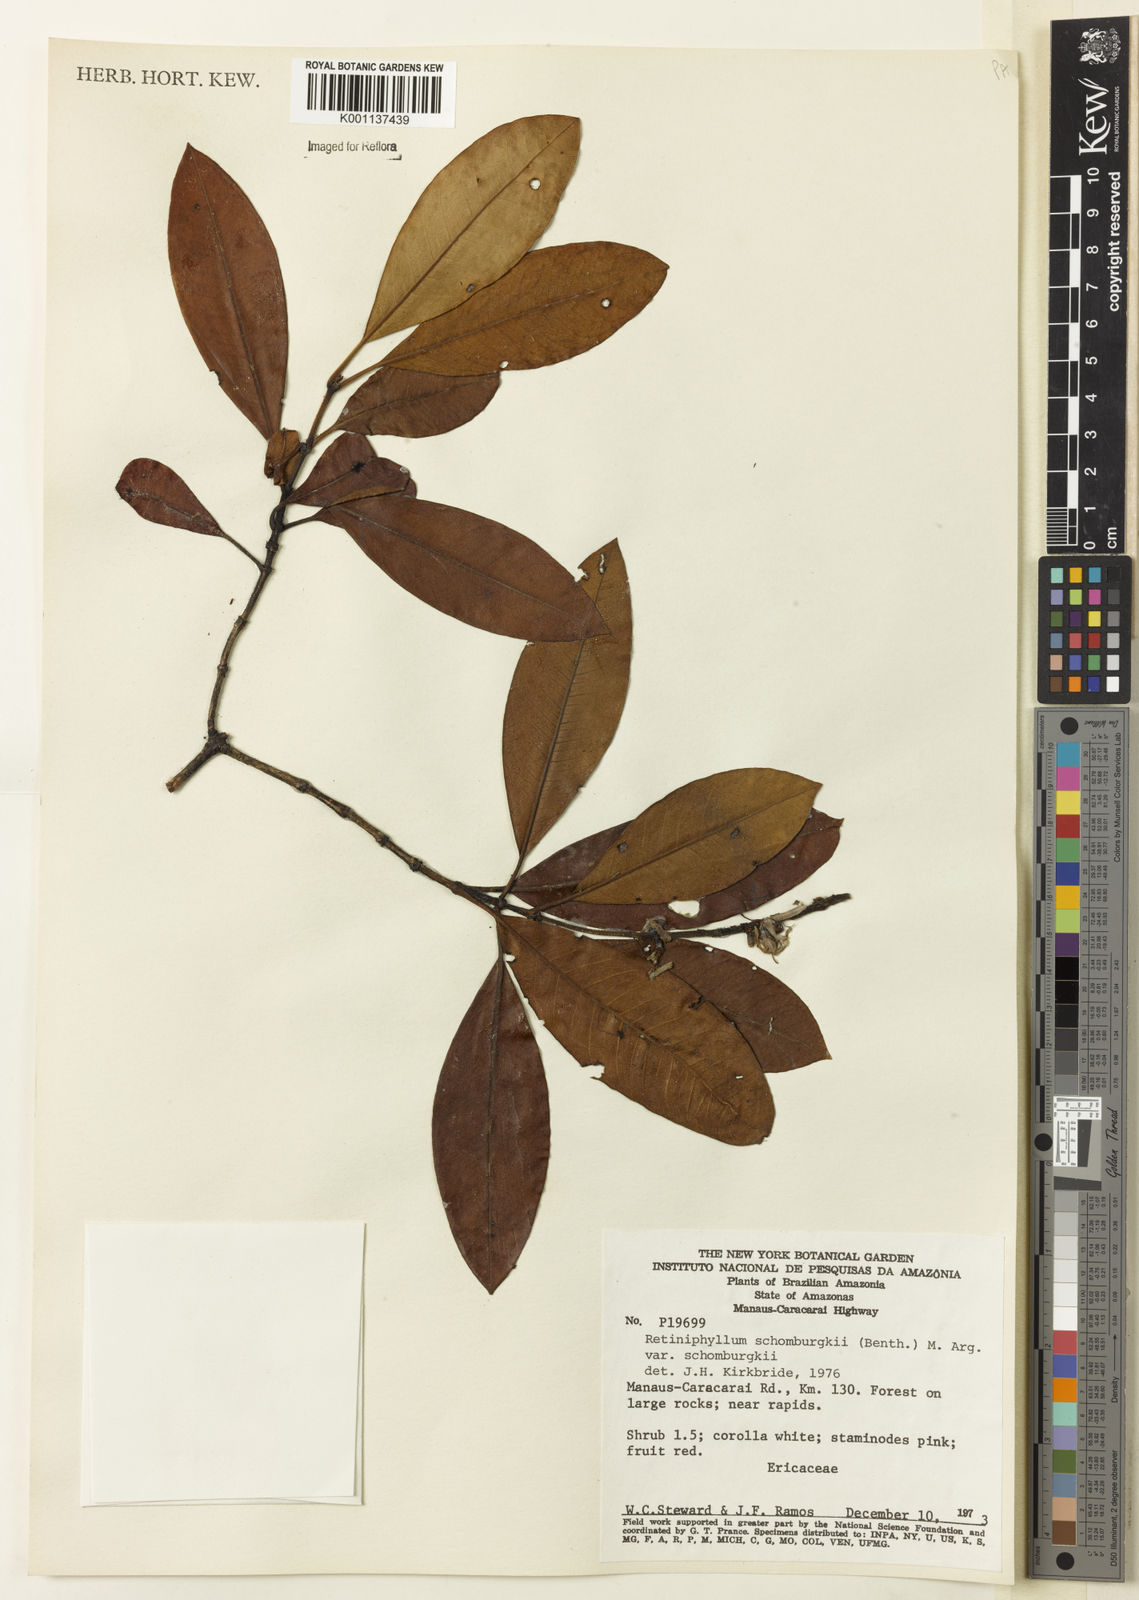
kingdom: Plantae
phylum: Tracheophyta
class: Magnoliopsida
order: Gentianales
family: Rubiaceae
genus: Retiniphyllum
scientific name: Retiniphyllum
